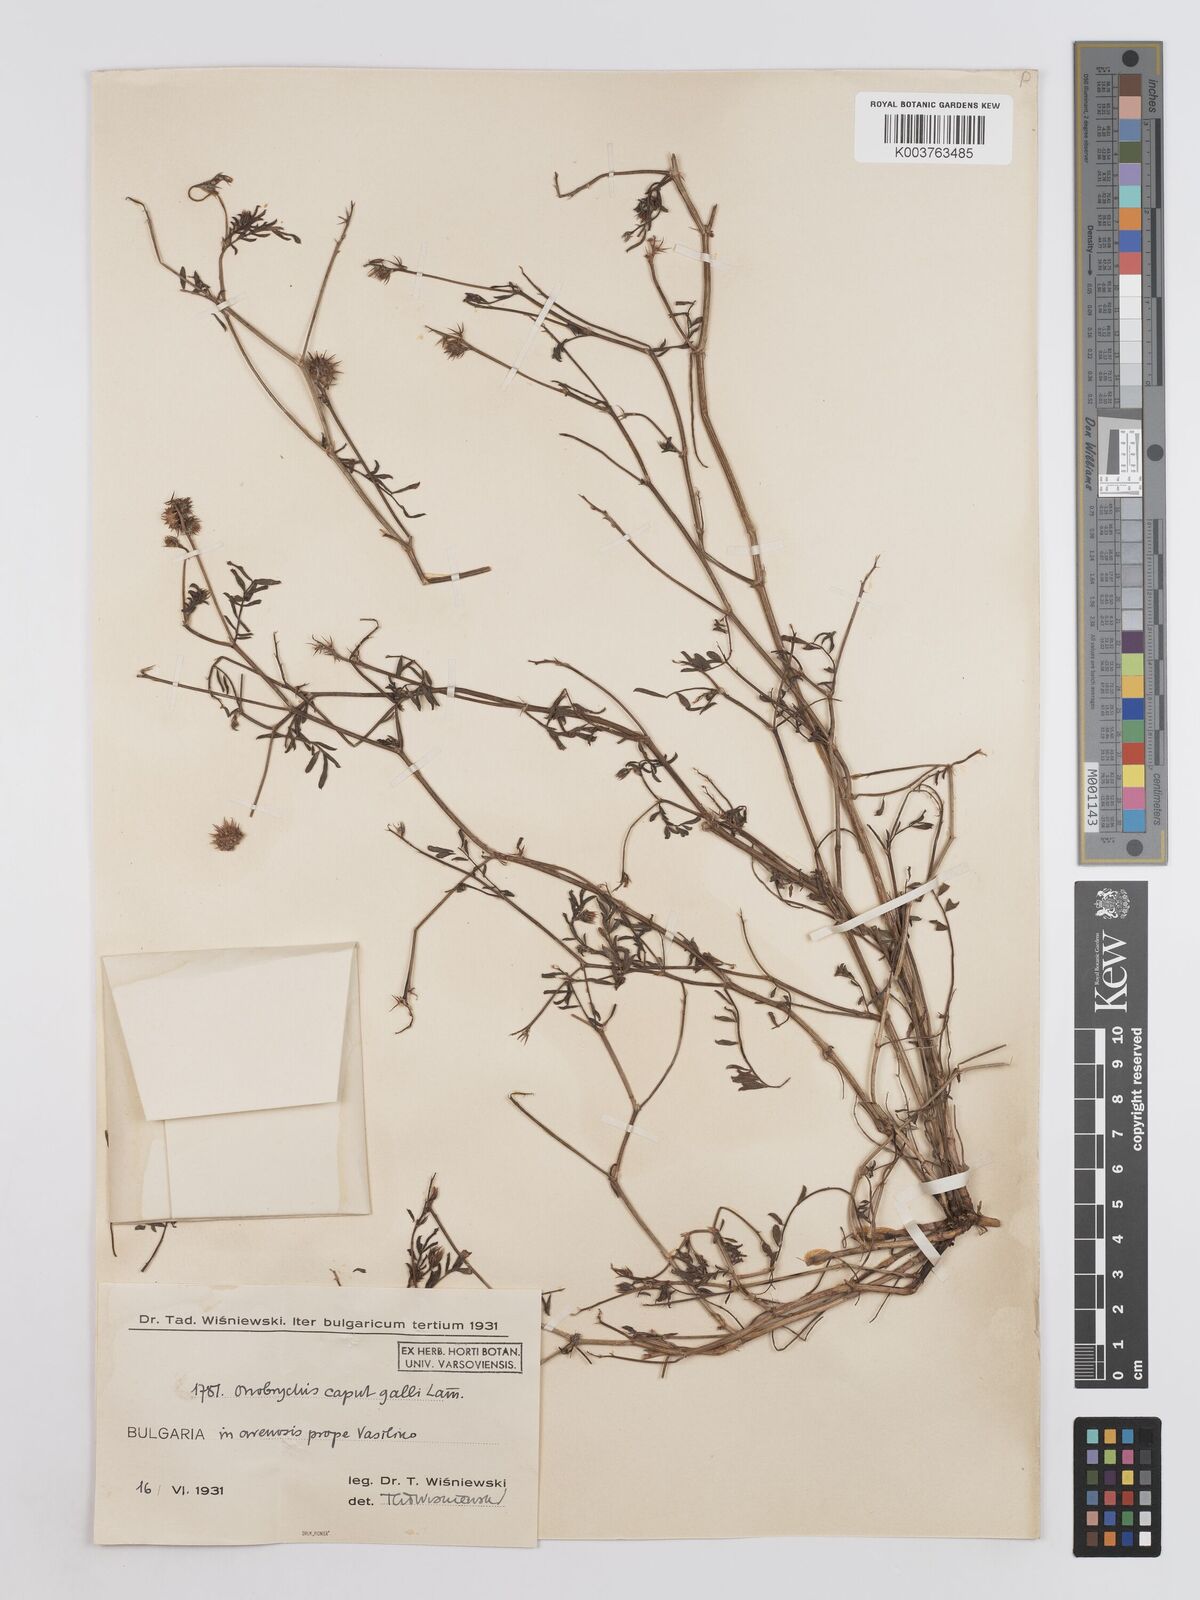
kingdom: Plantae
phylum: Tracheophyta
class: Magnoliopsida
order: Fabales
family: Fabaceae
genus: Onobrychis
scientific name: Onobrychis caput-galli
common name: Cockscomb sainfoin
